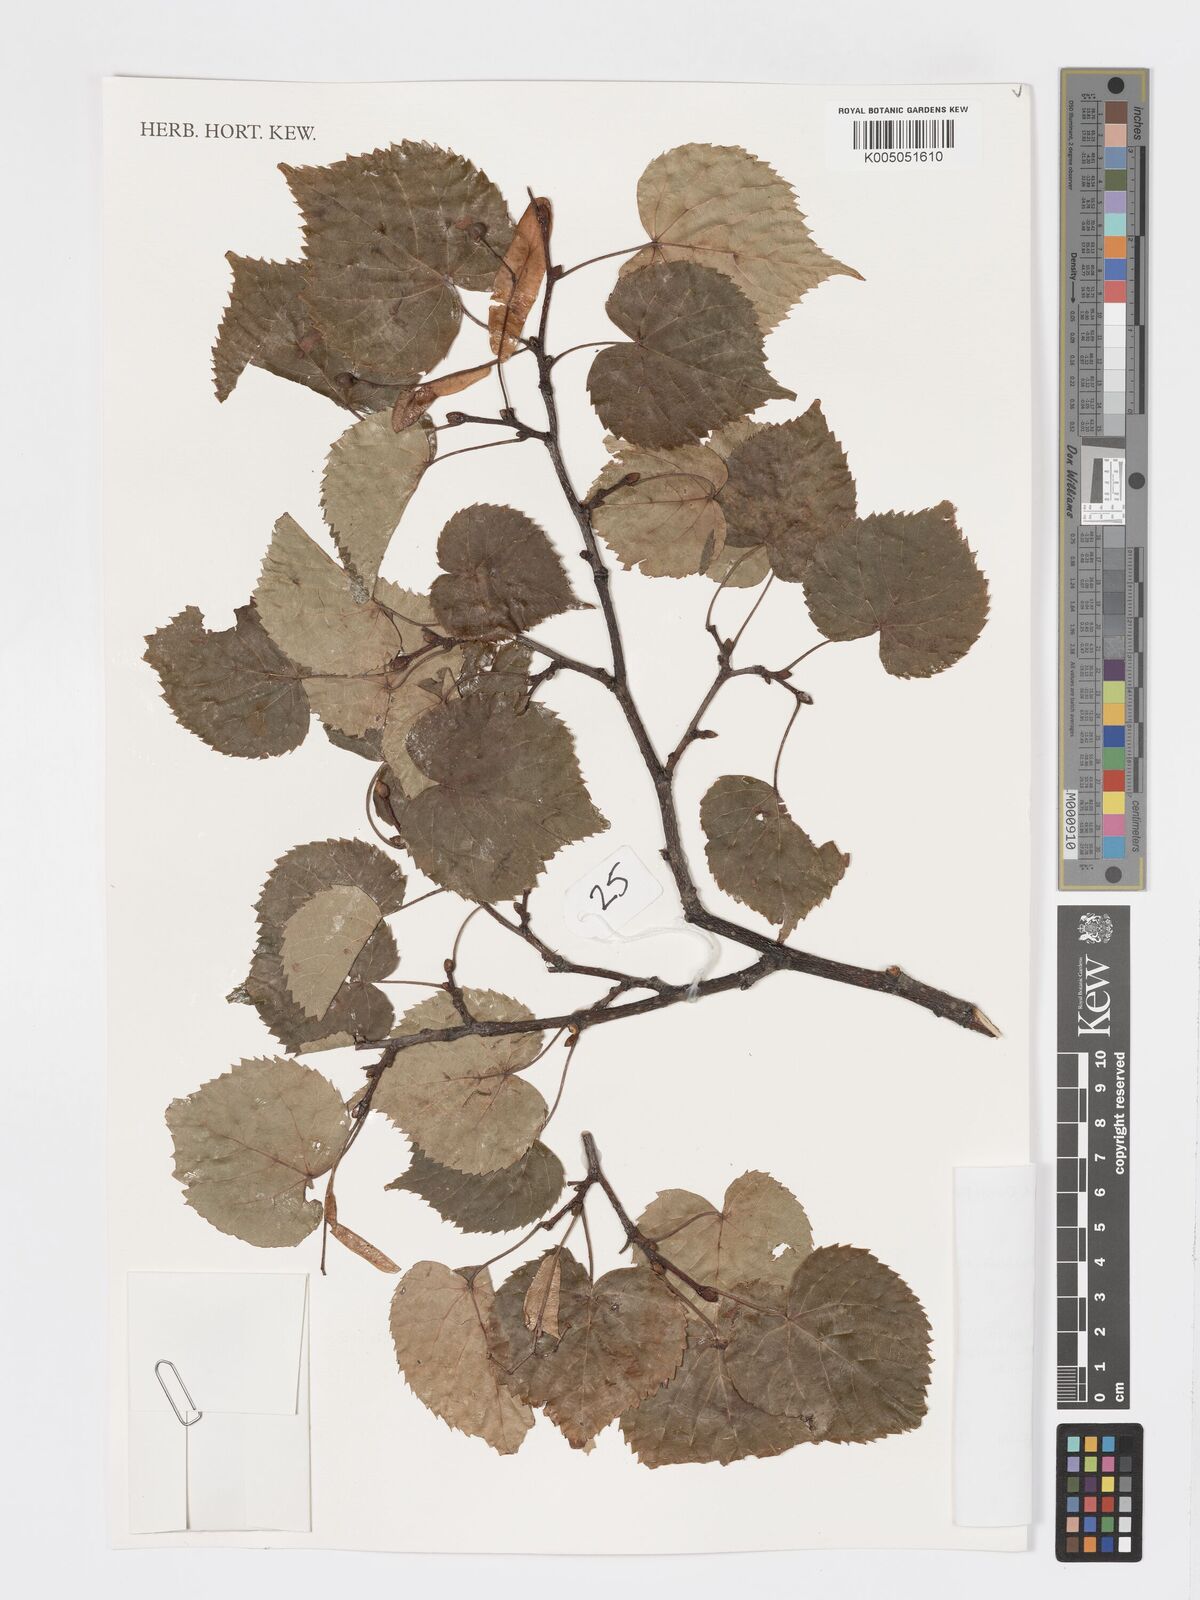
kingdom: Plantae
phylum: Tracheophyta
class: Magnoliopsida
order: Malvales
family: Malvaceae
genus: Tilia
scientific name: Tilia
